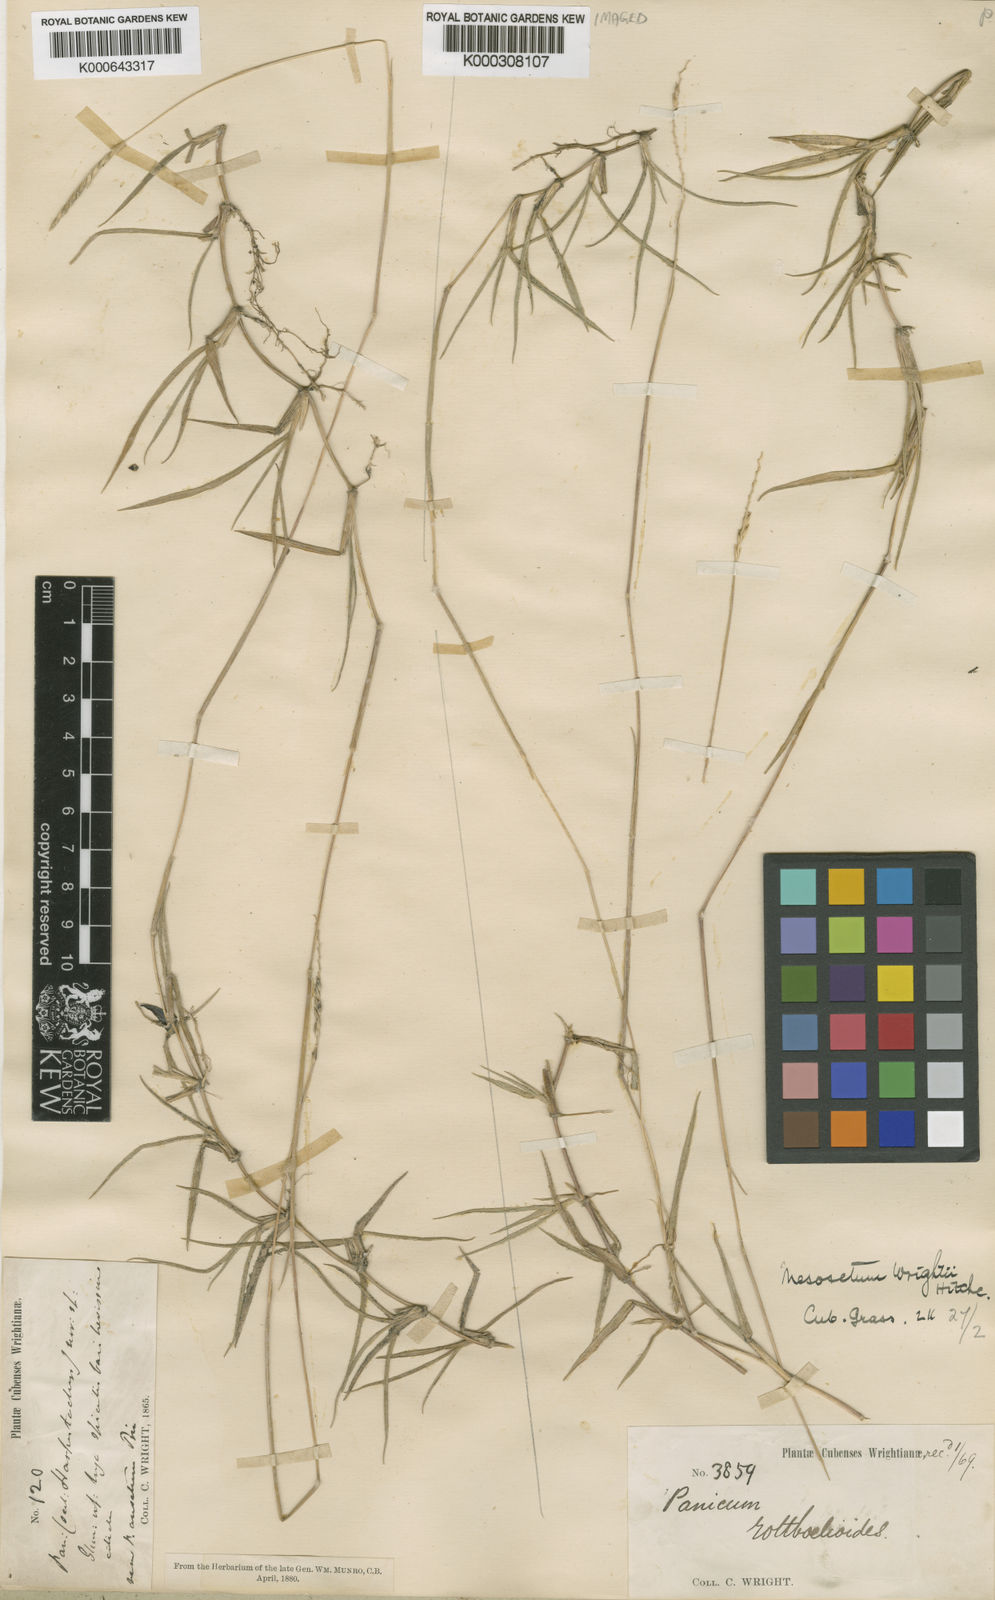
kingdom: Plantae
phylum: Tracheophyta
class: Liliopsida
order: Poales
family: Poaceae
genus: Mesosetum
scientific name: Mesosetum wrightii
